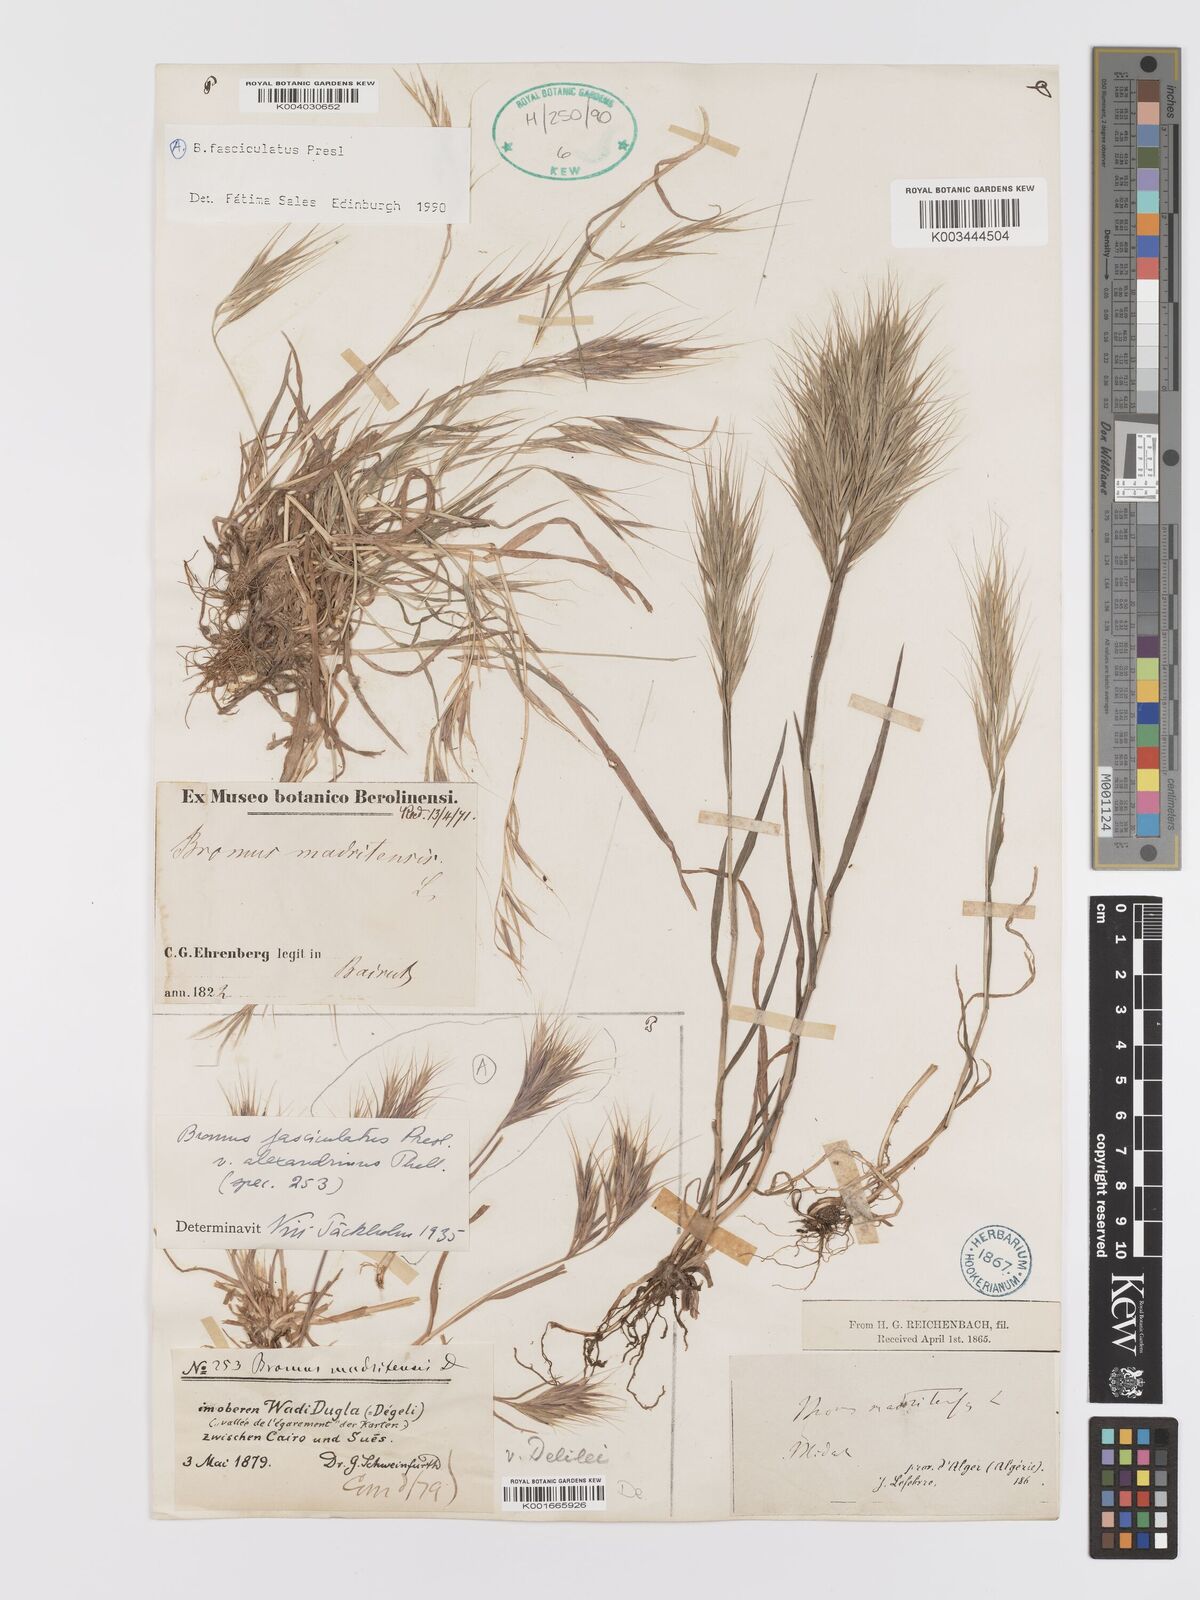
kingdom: Plantae
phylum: Tracheophyta
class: Liliopsida
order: Poales
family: Poaceae
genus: Bromus
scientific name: Bromus fasciculatus
